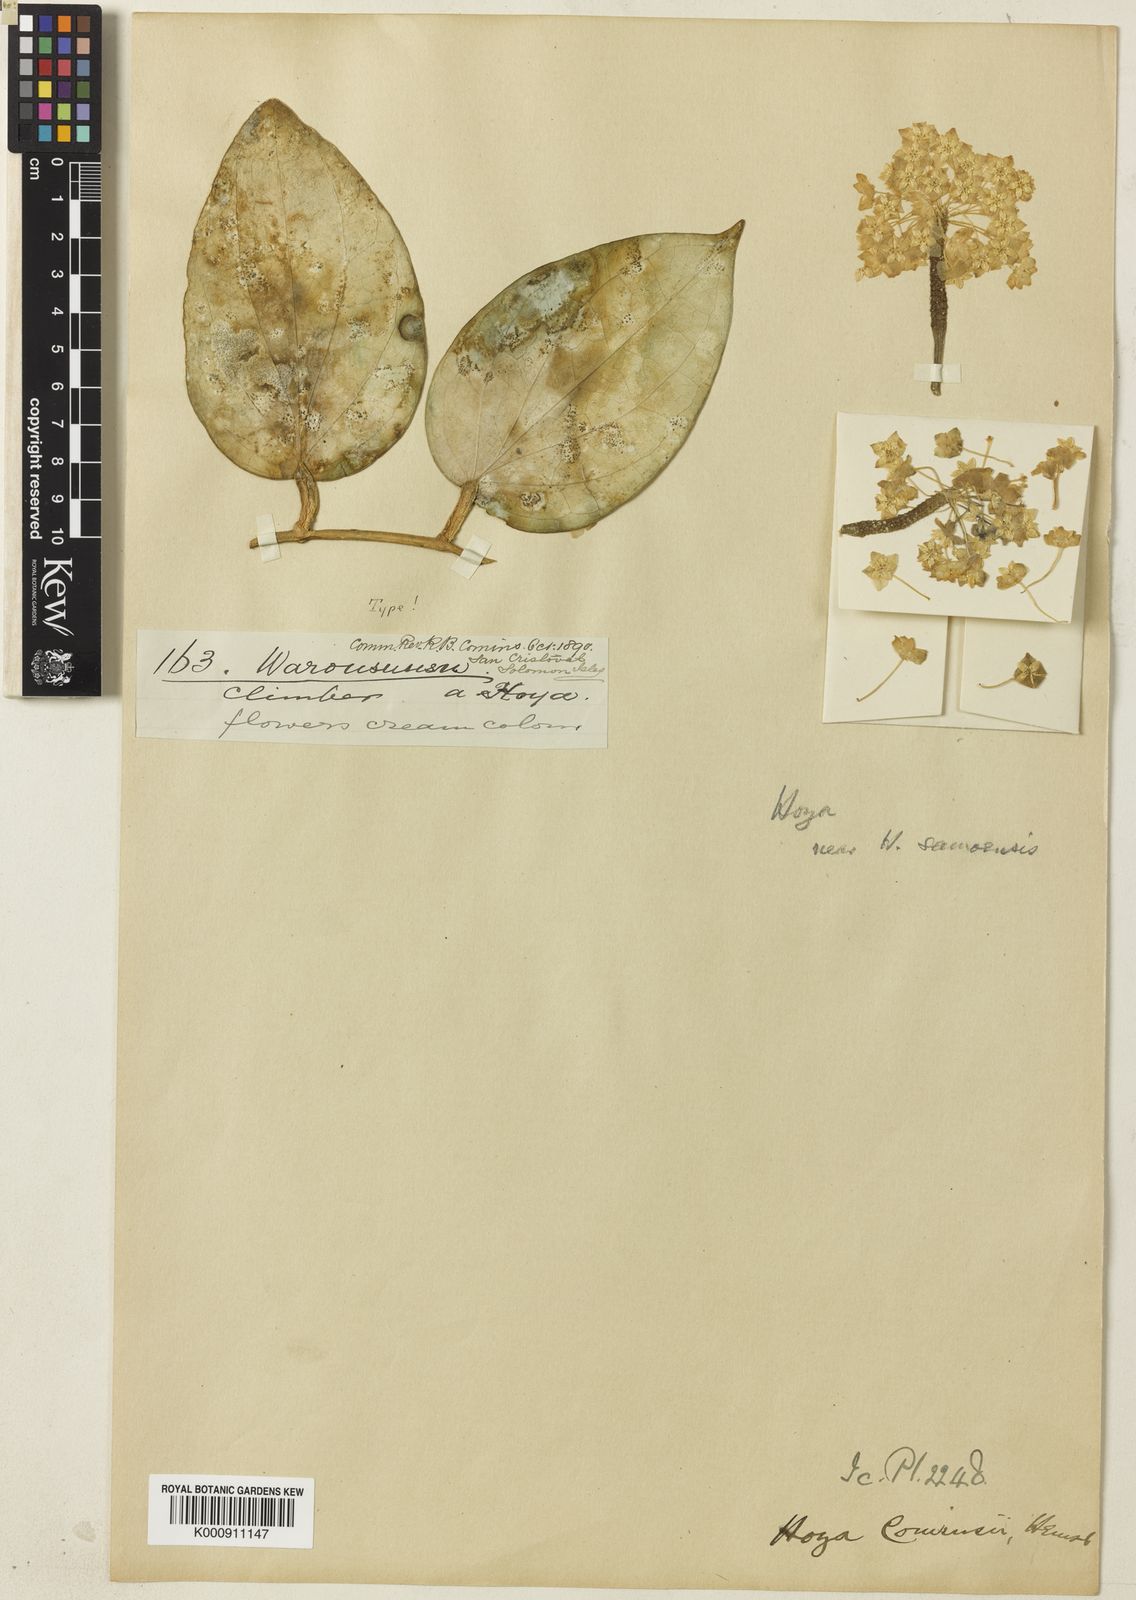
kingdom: Plantae
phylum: Tracheophyta
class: Magnoliopsida
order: Gentianales
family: Apocynaceae
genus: Hoya
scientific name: Hoya nicholsoniae
